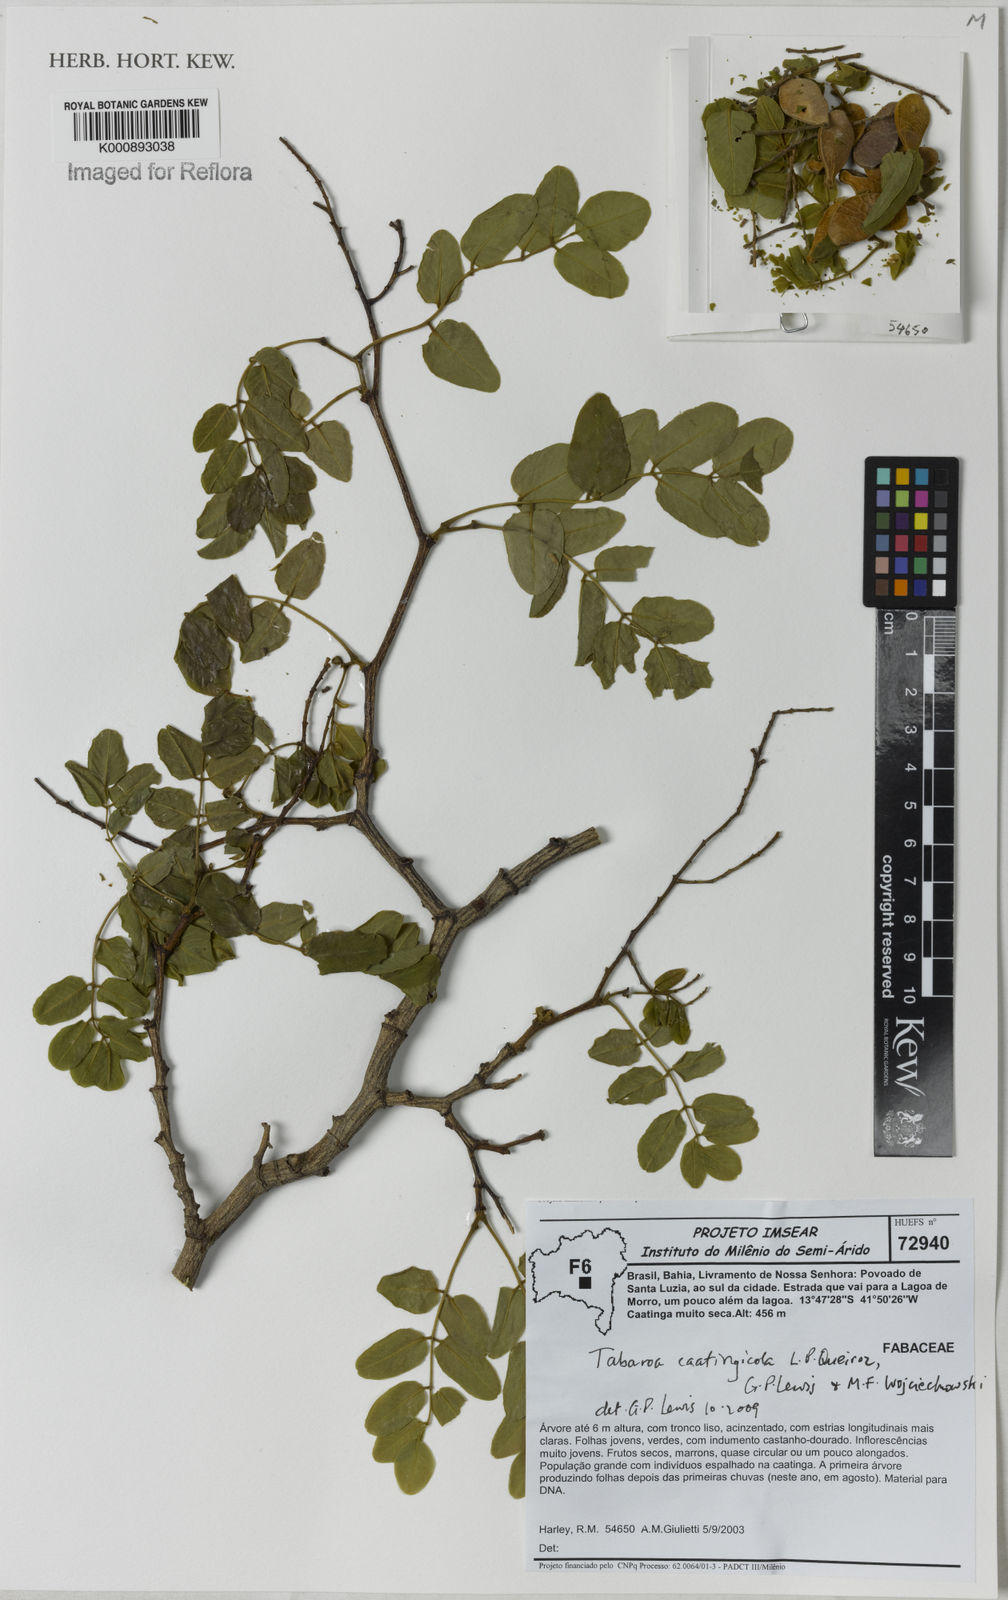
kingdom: Plantae
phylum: Tracheophyta
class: Magnoliopsida
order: Fabales
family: Fabaceae
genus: Tabaroa
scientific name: Tabaroa caatingicola
